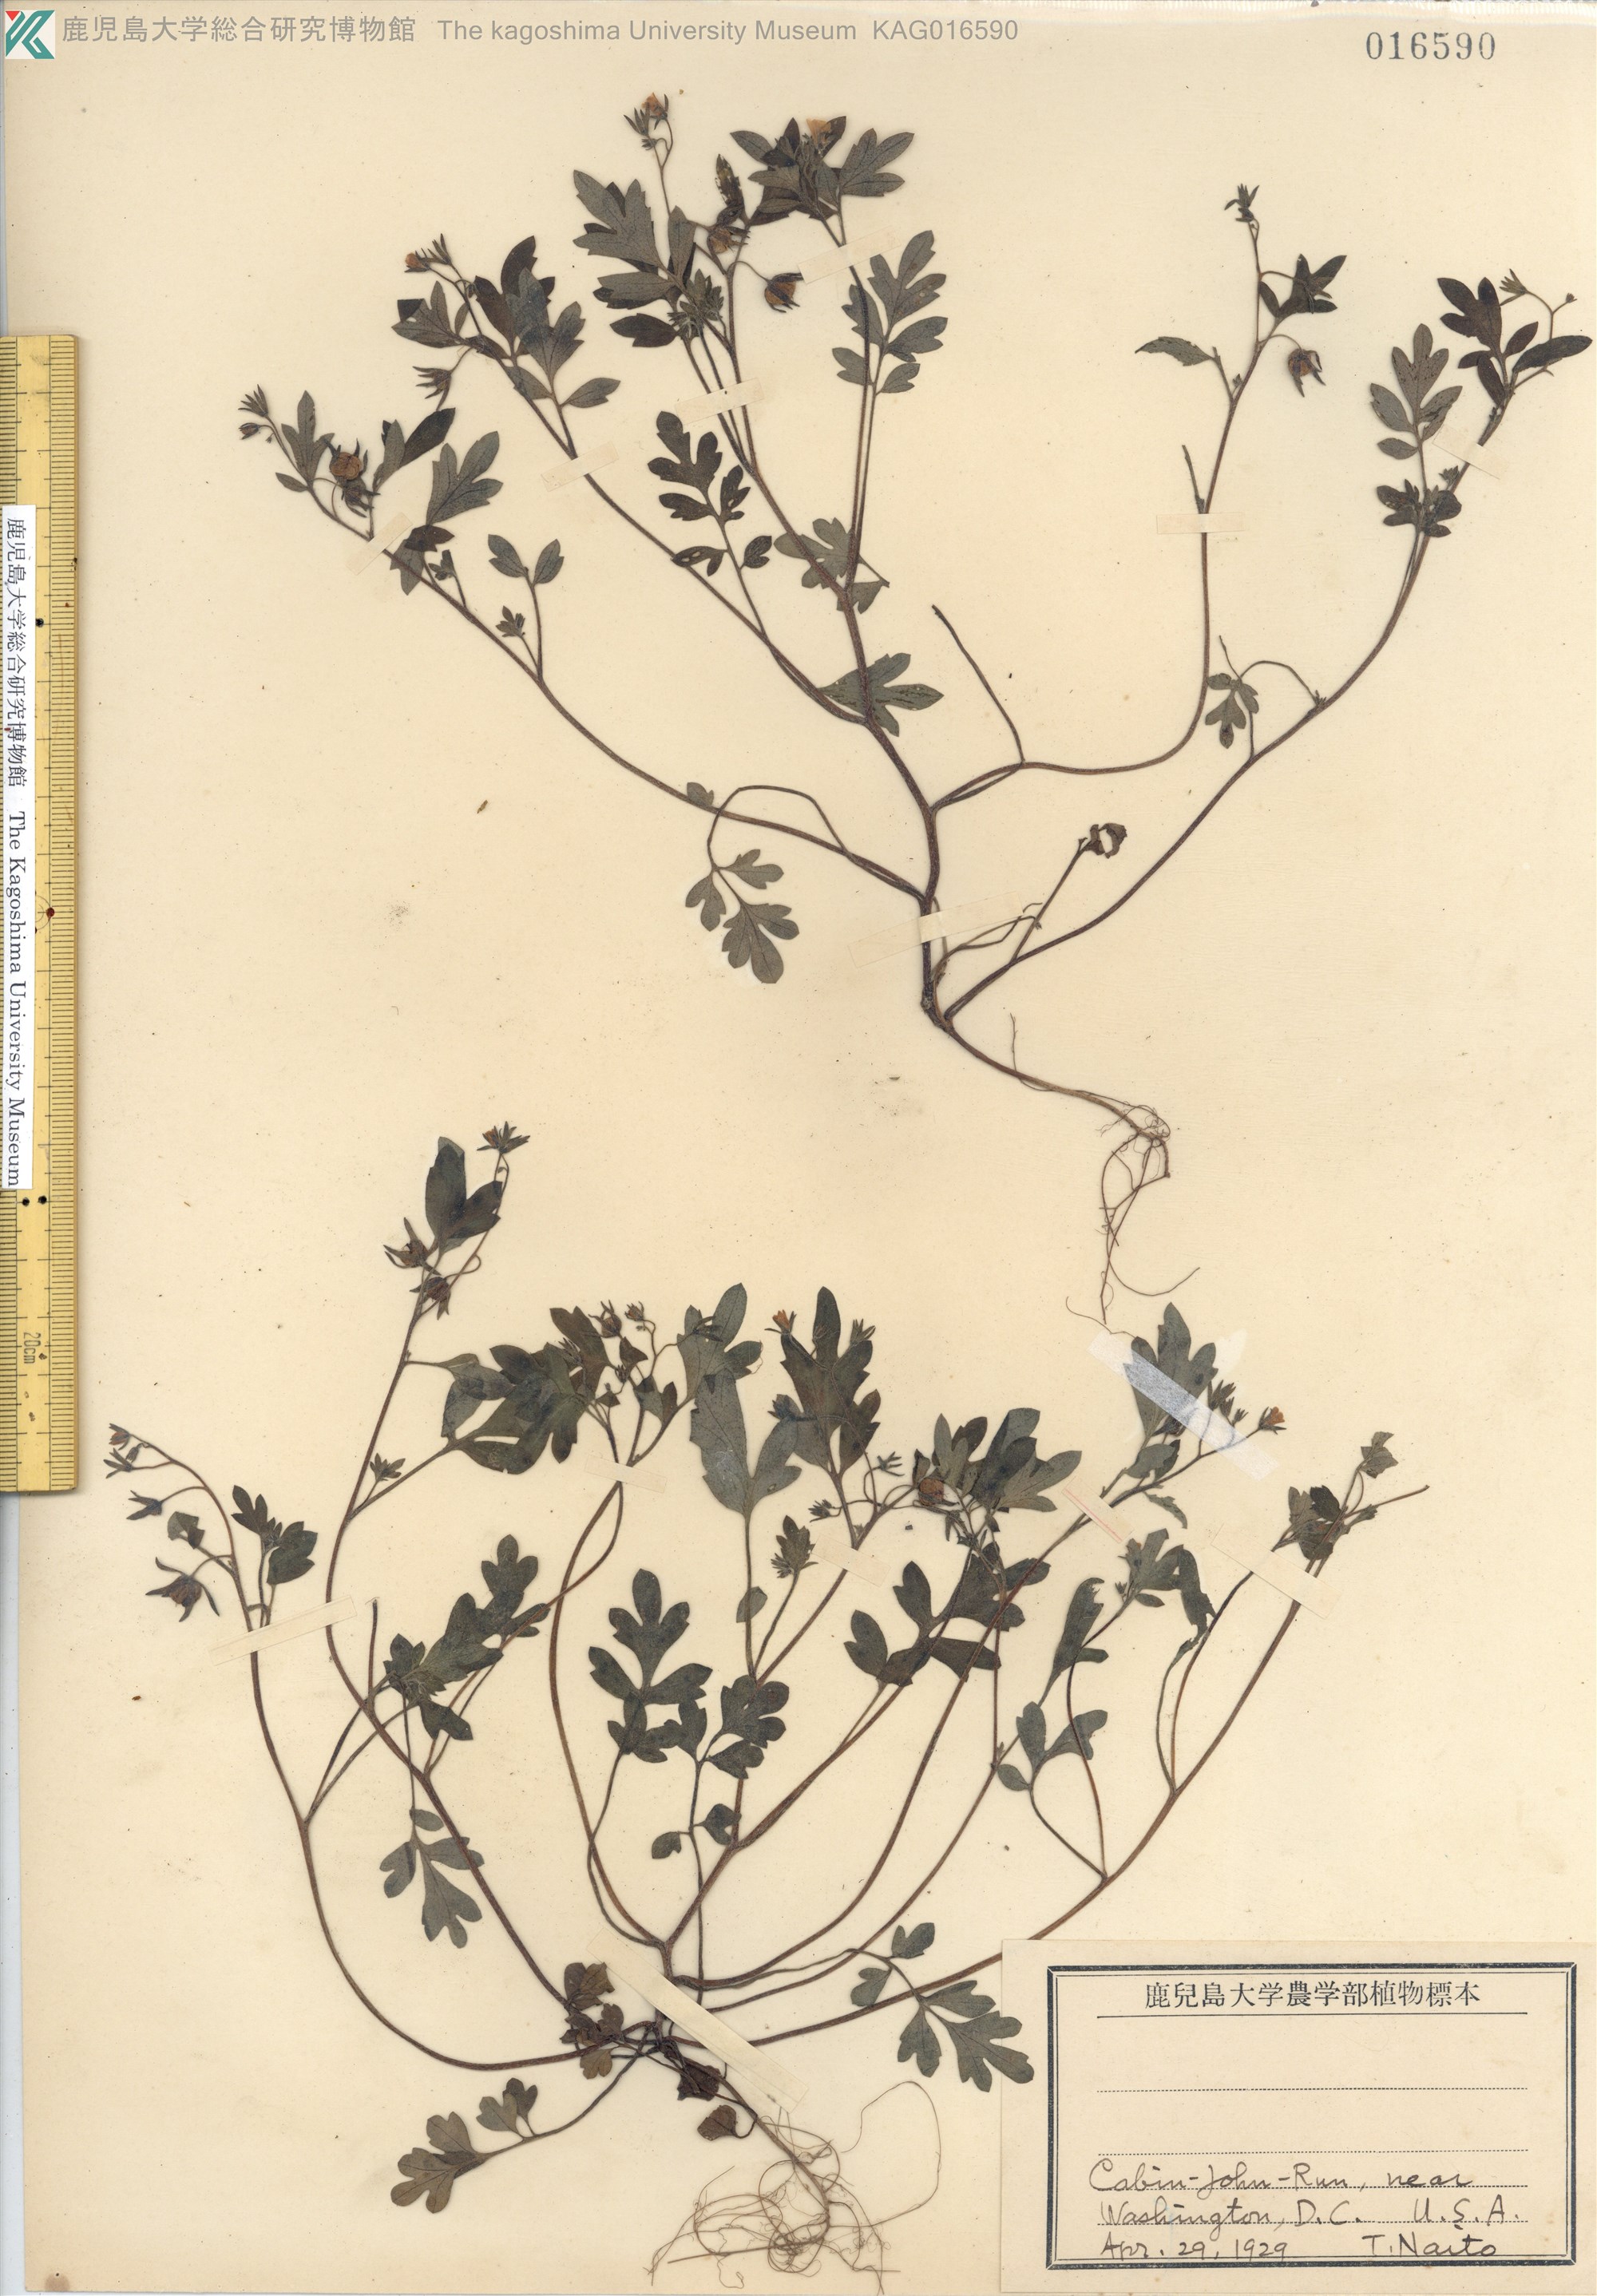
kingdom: Plantae
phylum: Tracheophyta
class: Magnoliopsida
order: Boraginales
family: Hydrophyllaceae
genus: Nemophila
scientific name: Nemophila heterophylla
